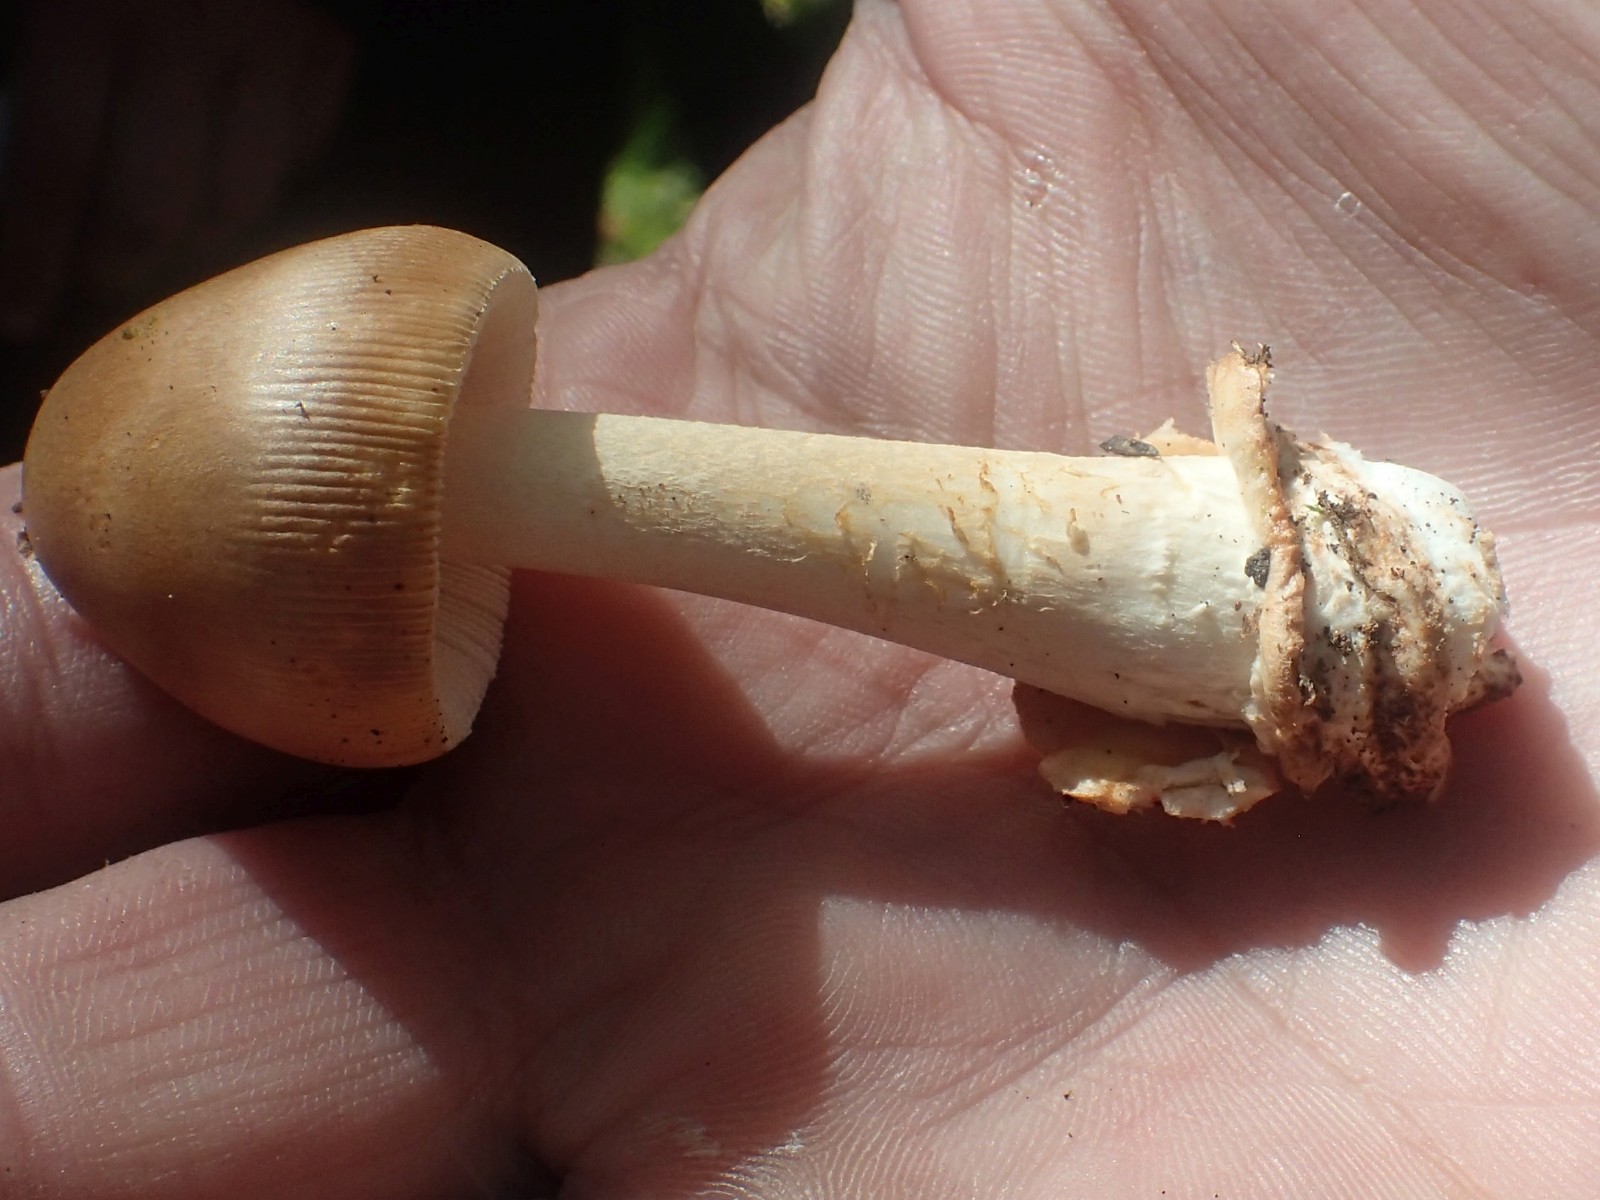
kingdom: Fungi
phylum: Basidiomycota
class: Agaricomycetes
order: Agaricales
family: Amanitaceae
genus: Amanita
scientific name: Amanita fulva
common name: brun kam-fluesvamp
